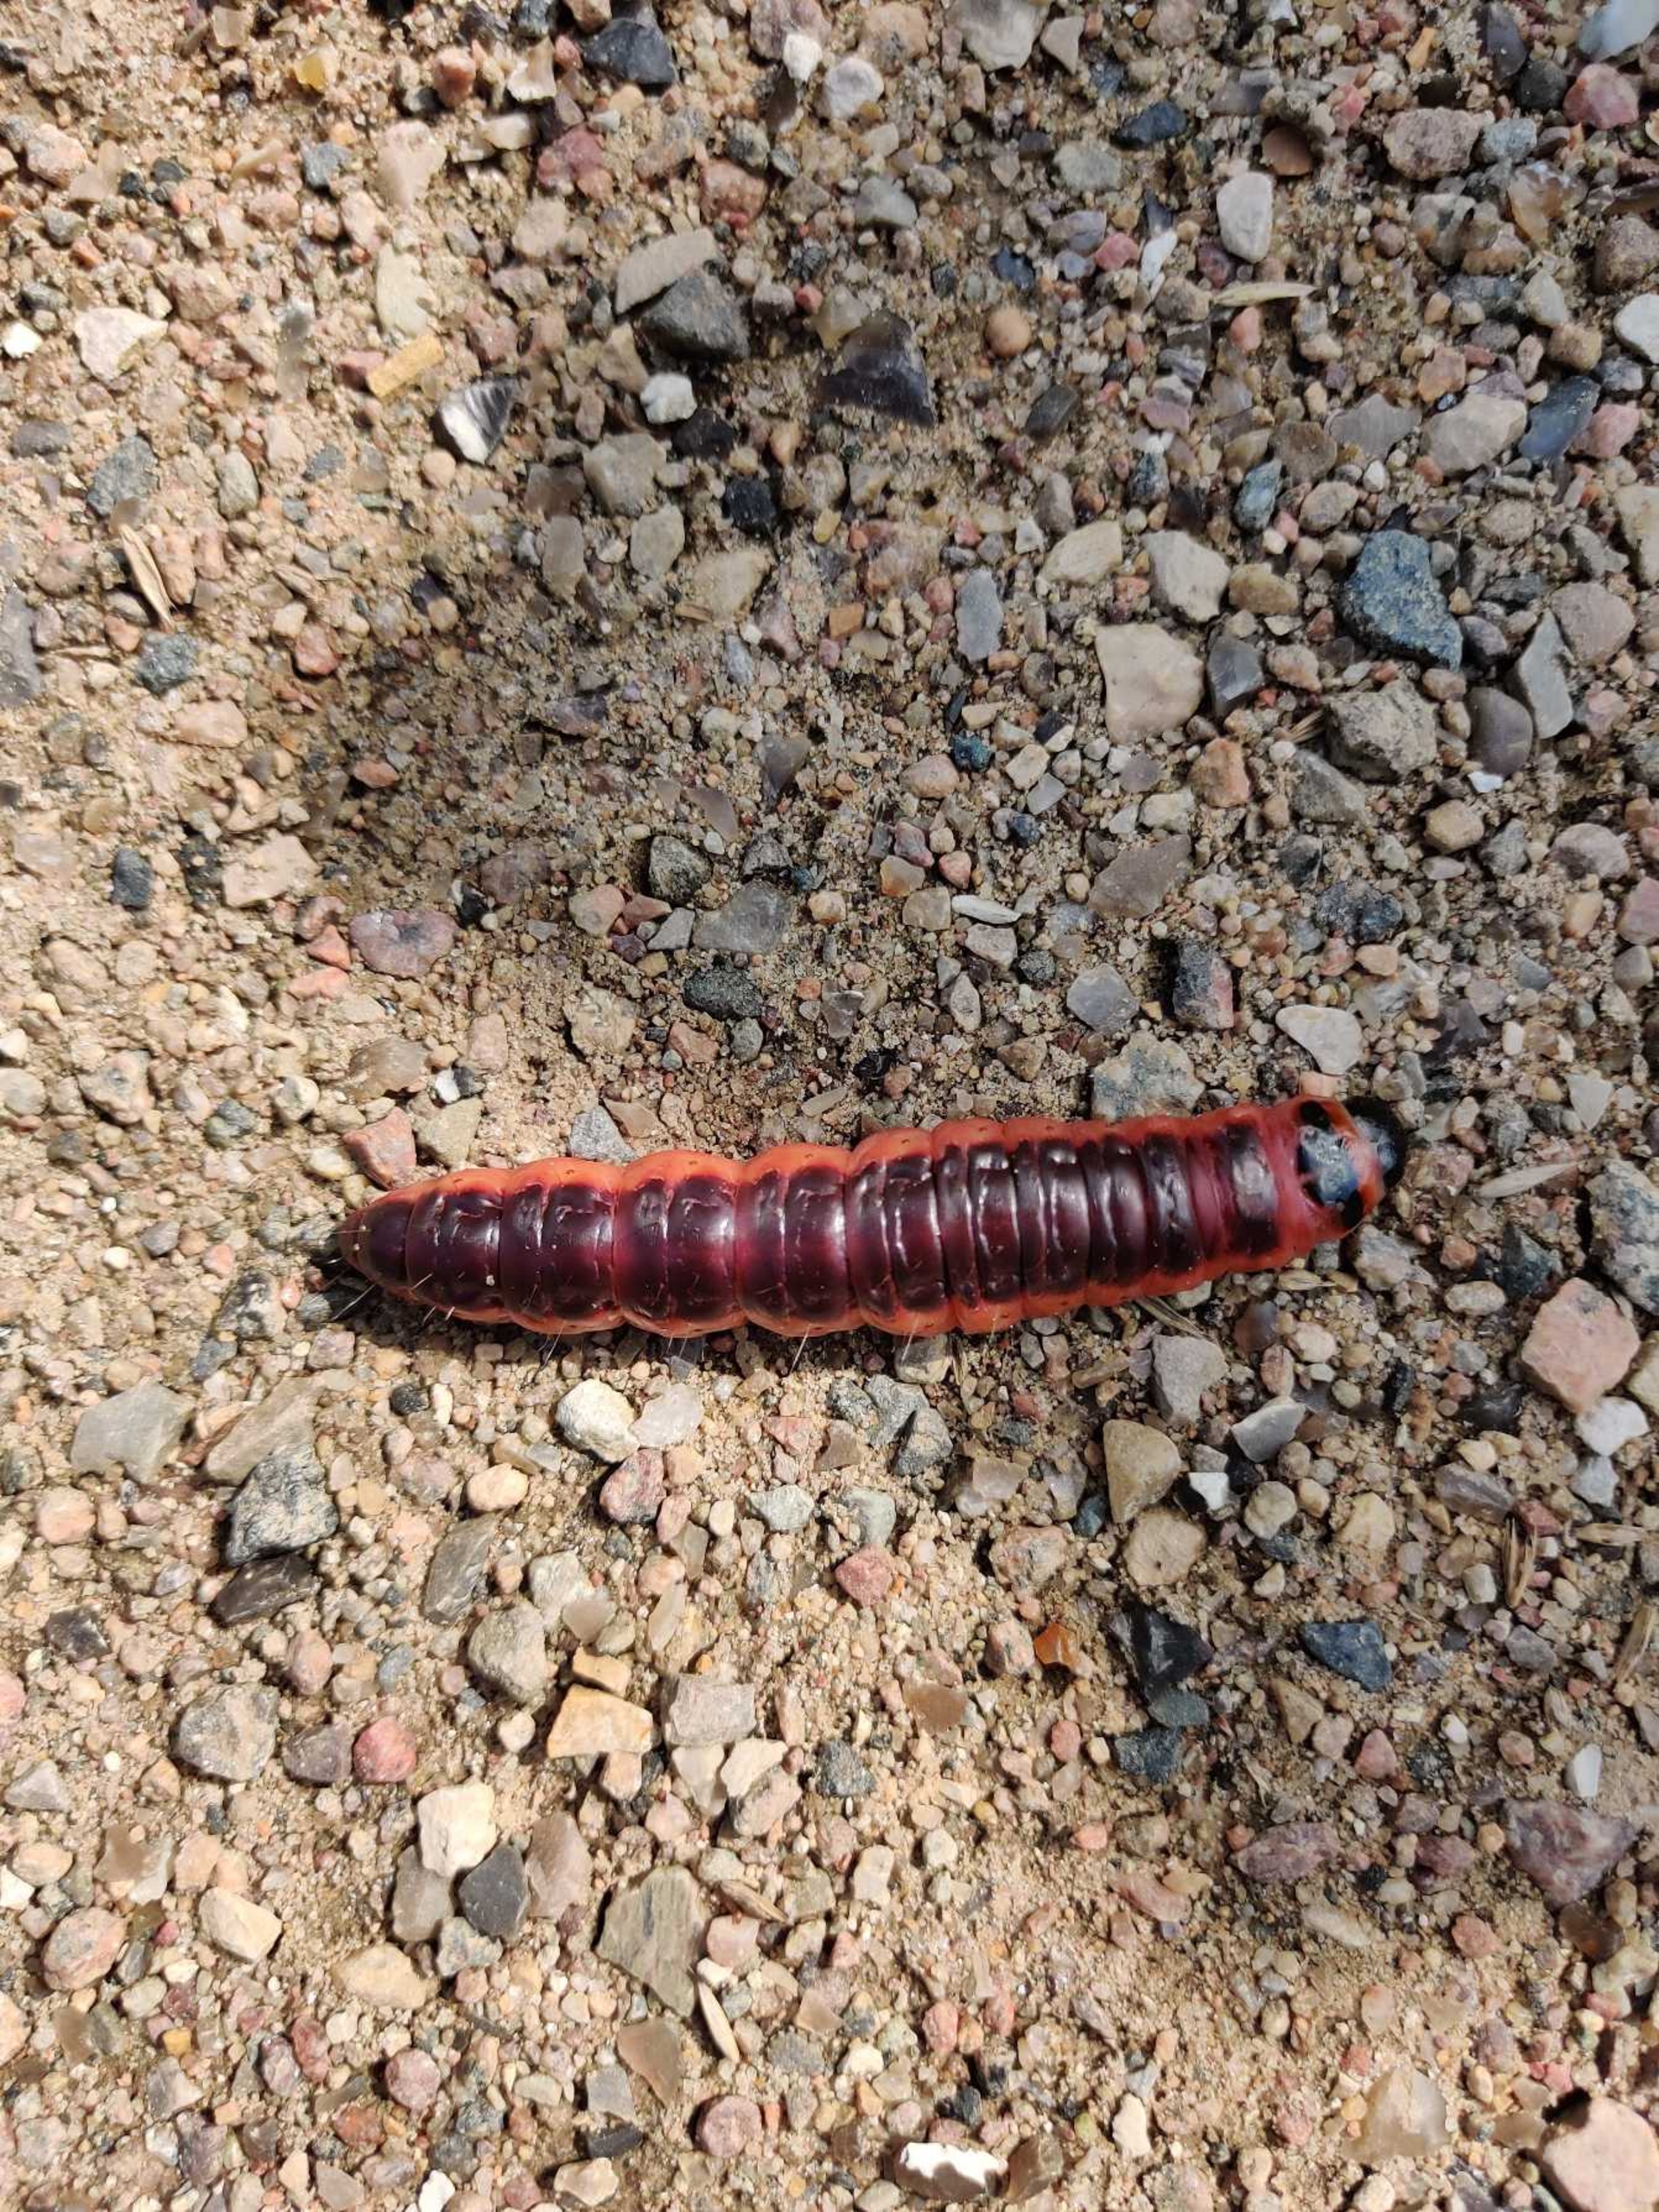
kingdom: Animalia
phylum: Arthropoda
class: Insecta
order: Lepidoptera
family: Cossidae
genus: Cossus
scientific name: Cossus cossus
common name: Pileborer
